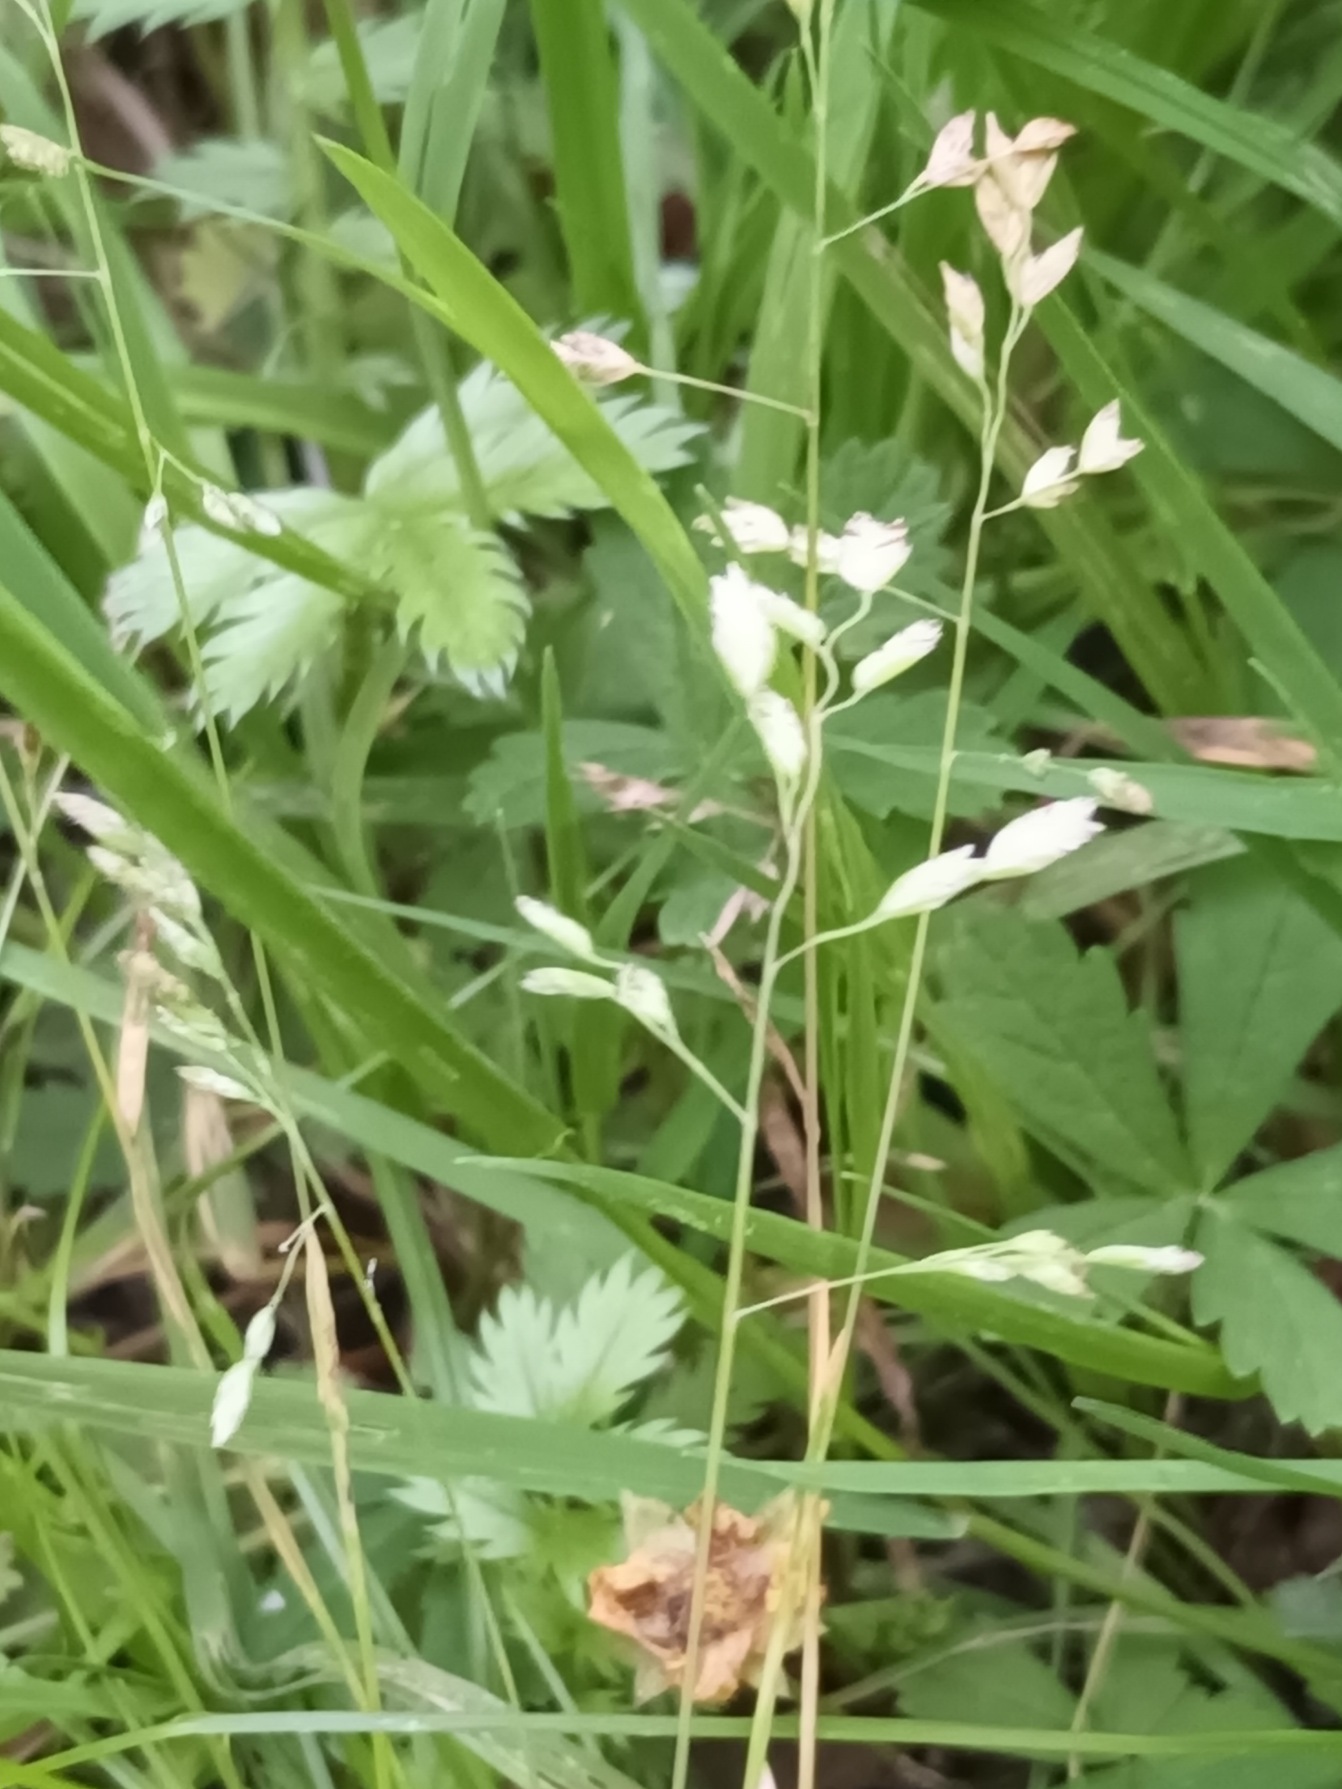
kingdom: Plantae
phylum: Tracheophyta
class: Liliopsida
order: Poales
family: Poaceae
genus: Poa
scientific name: Poa annua
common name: Enårig rapgræs
